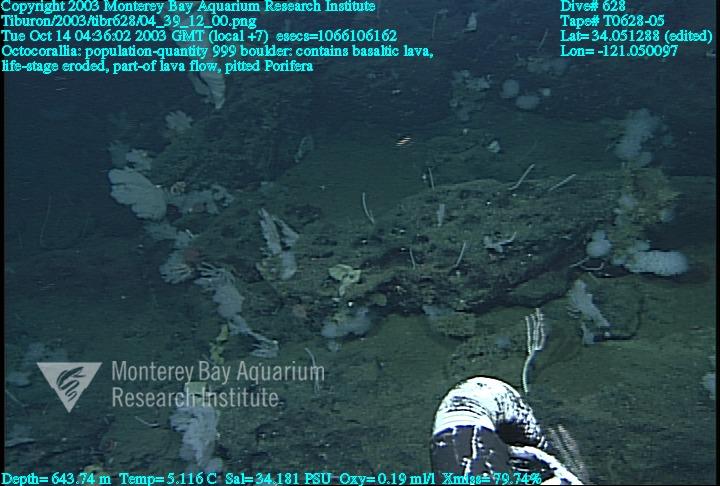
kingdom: Animalia
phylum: Porifera
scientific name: Porifera
